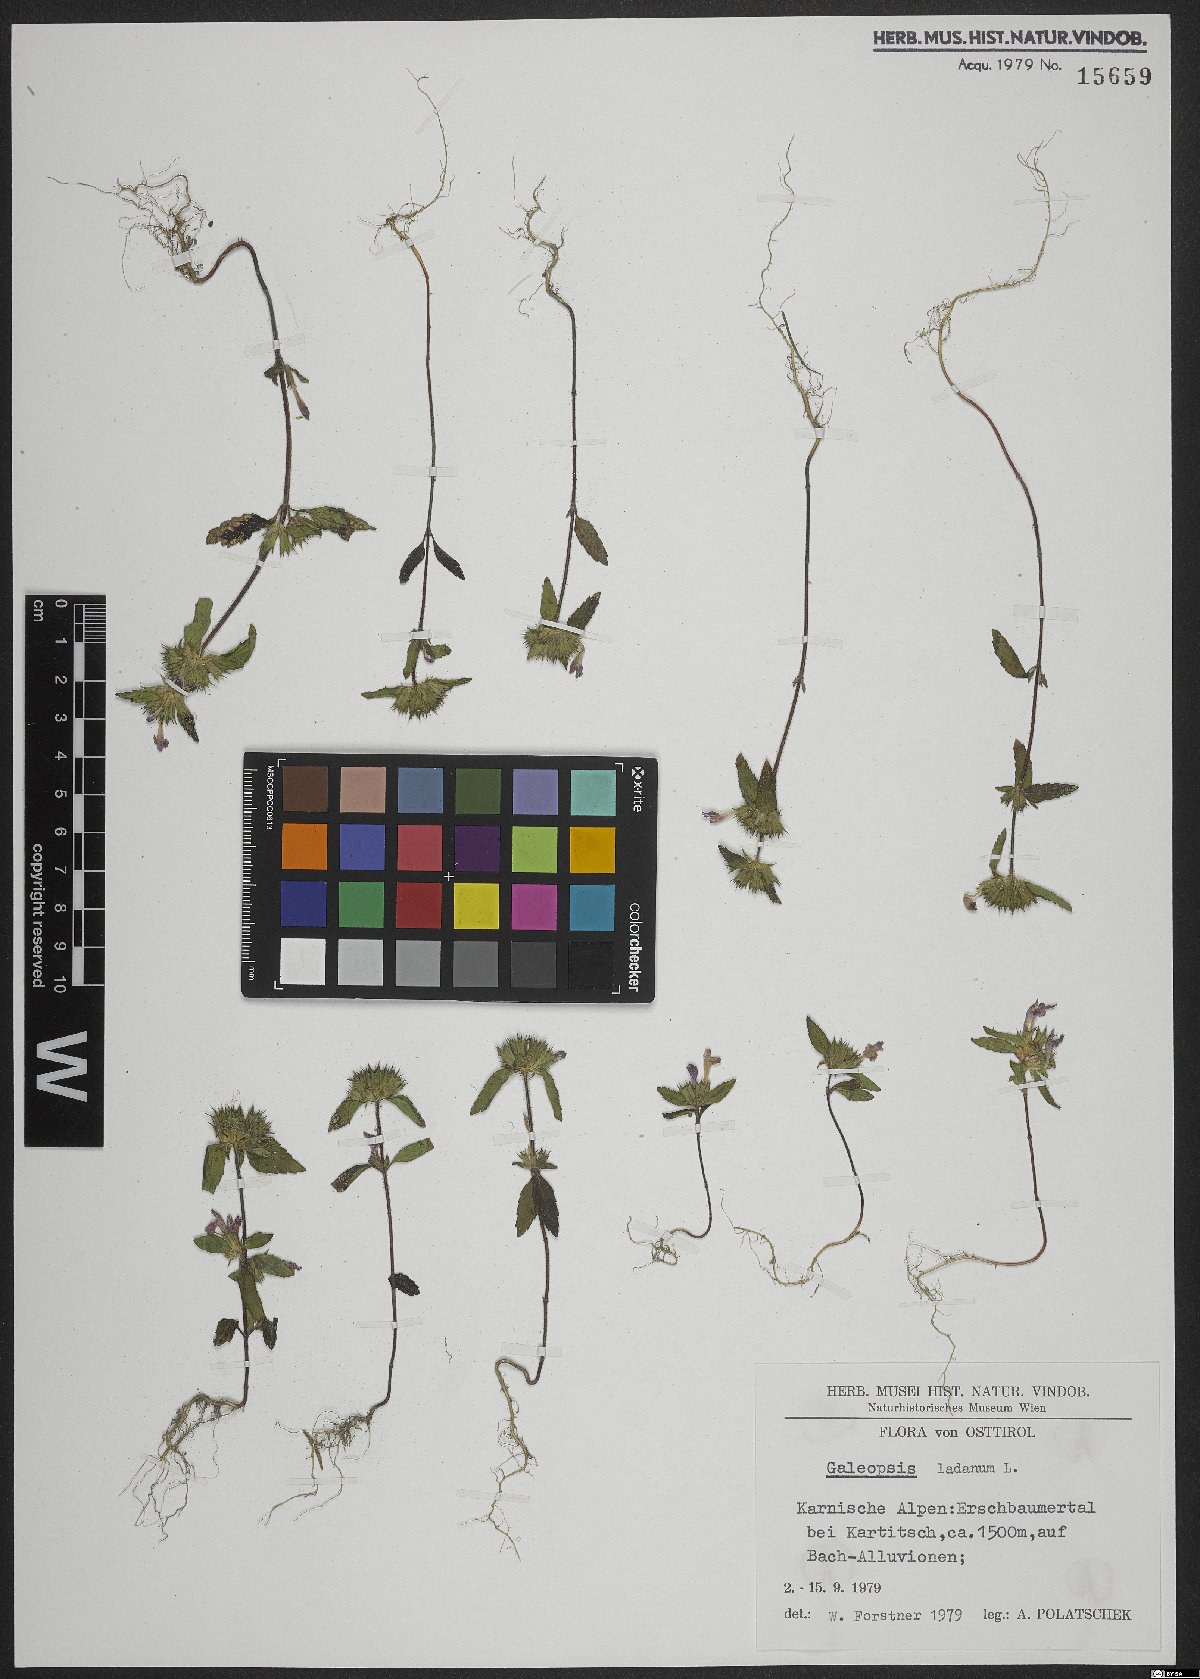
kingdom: Plantae
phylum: Tracheophyta
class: Magnoliopsida
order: Lamiales
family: Lamiaceae
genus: Galeopsis
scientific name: Galeopsis ladanum
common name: Broad-leaved hemp-nettle
